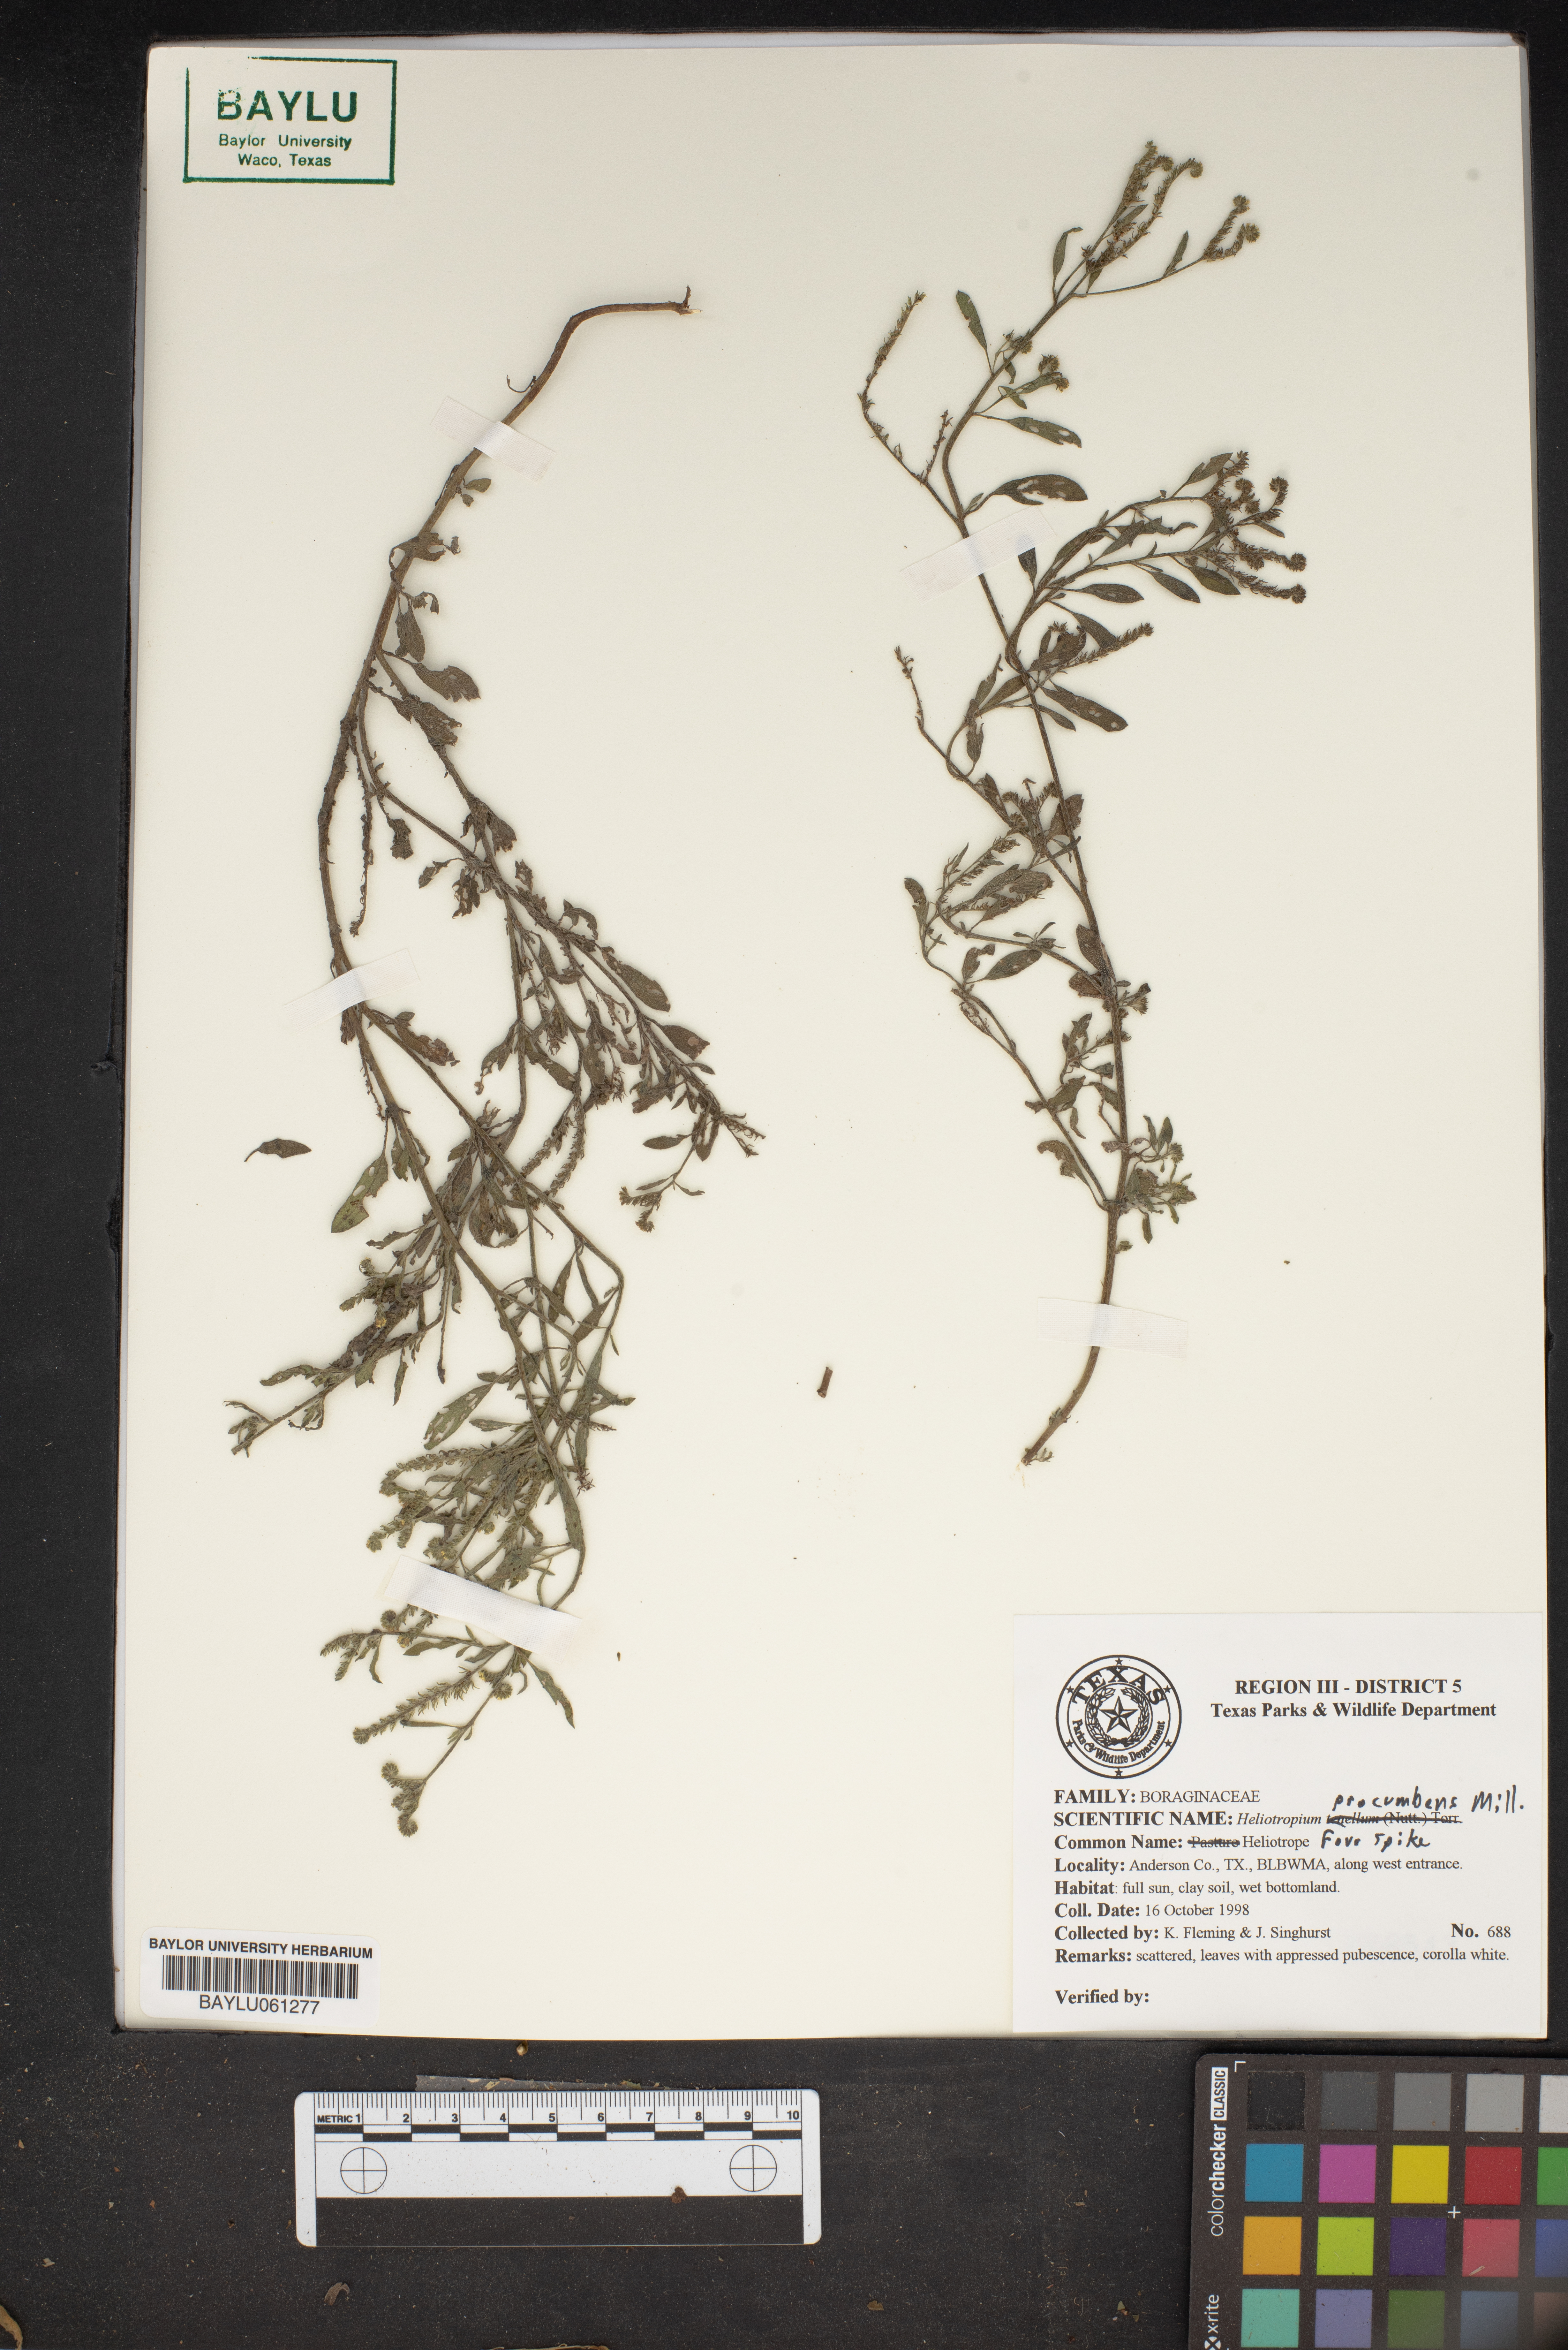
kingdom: Plantae
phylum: Tracheophyta
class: Magnoliopsida
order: Boraginales
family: Heliotropiaceae
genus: Euploca
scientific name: Euploca procumbens
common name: Fourspike heliotrope
